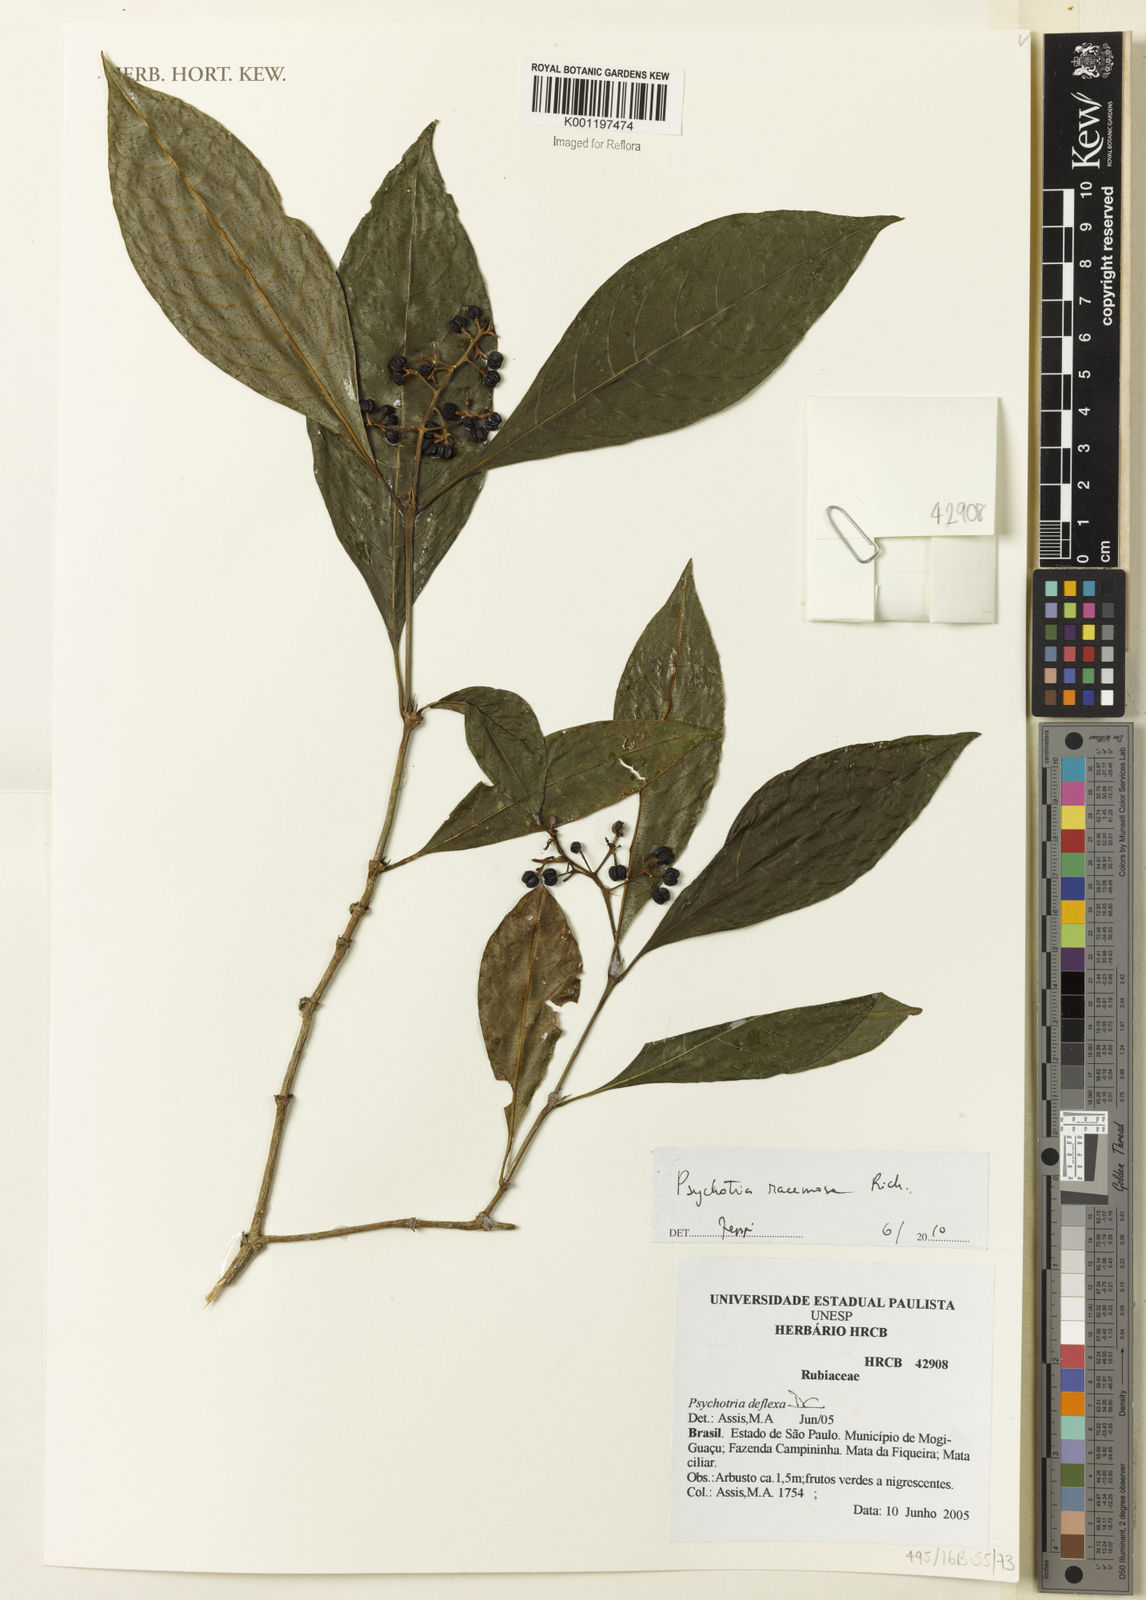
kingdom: Plantae
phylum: Tracheophyta
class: Magnoliopsida
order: Gentianales
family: Rubiaceae
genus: Palicourea
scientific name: Palicourea racemosa
